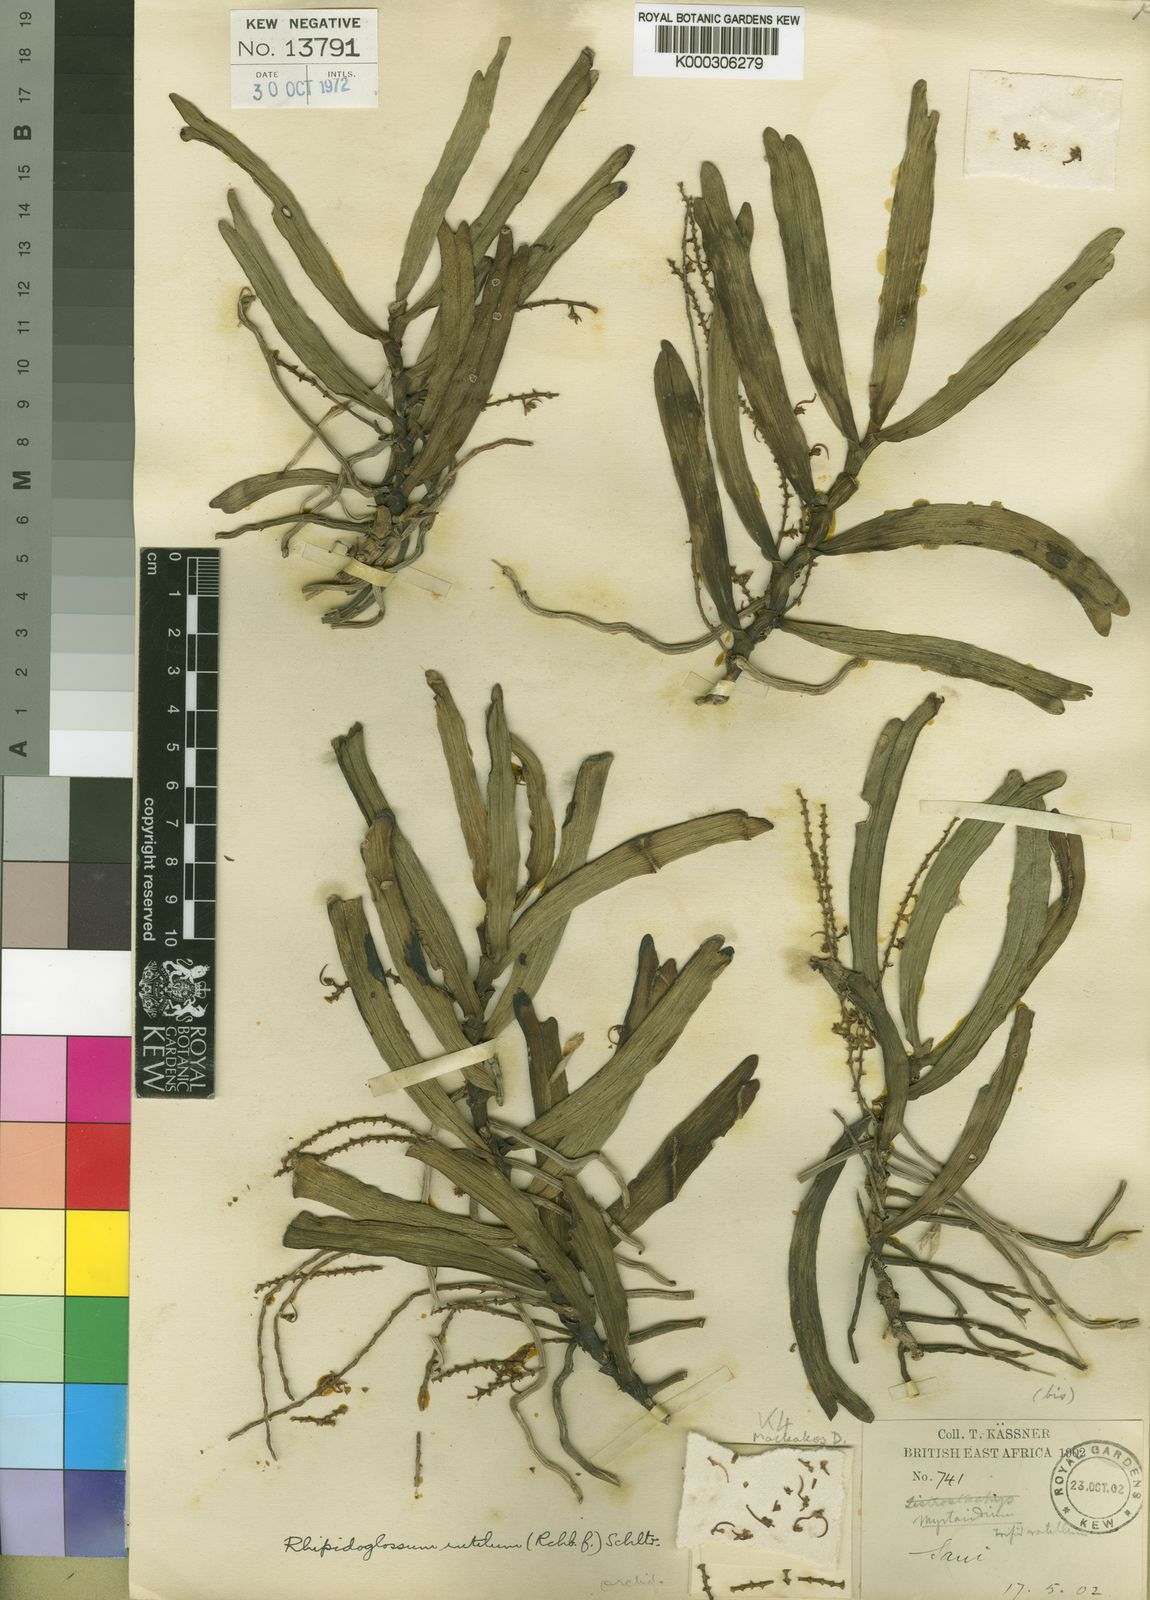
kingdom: Plantae
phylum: Tracheophyta
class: Liliopsida
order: Asparagales
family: Orchidaceae
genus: Rhipidoglossum
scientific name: Rhipidoglossum rutilum
